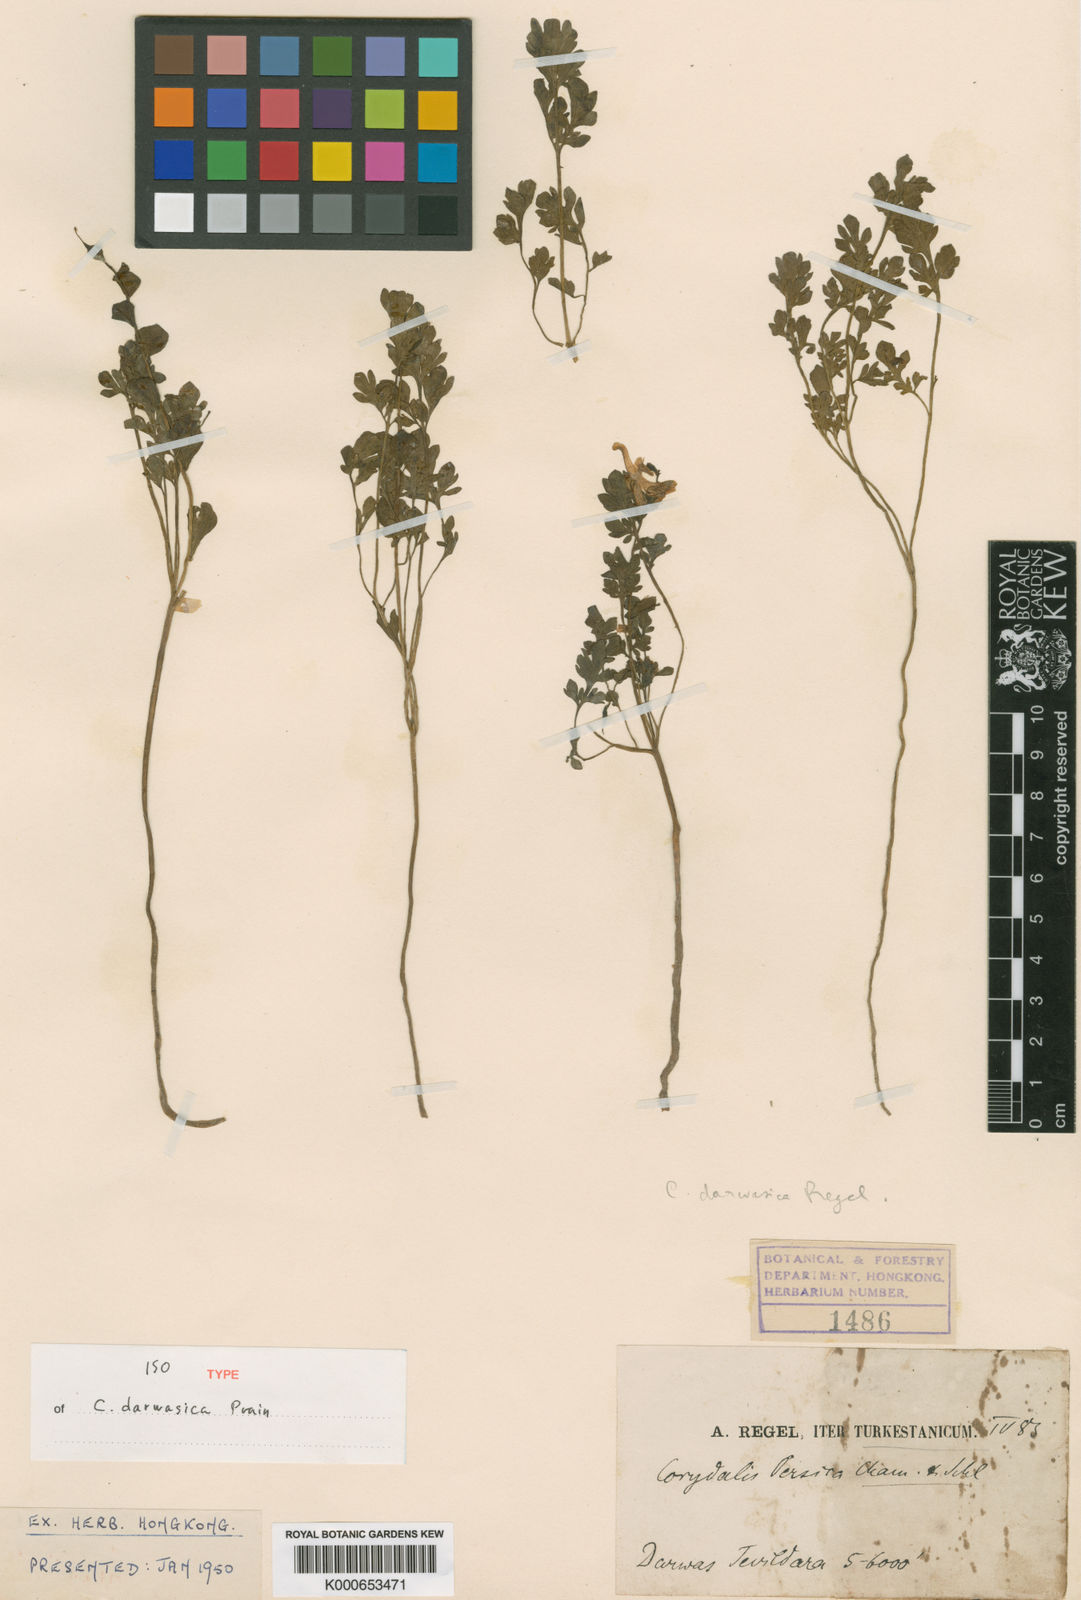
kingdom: Plantae
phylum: Tracheophyta
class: Magnoliopsida
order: Ranunculales
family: Papaveraceae
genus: Corydalis
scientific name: Corydalis darwasica
